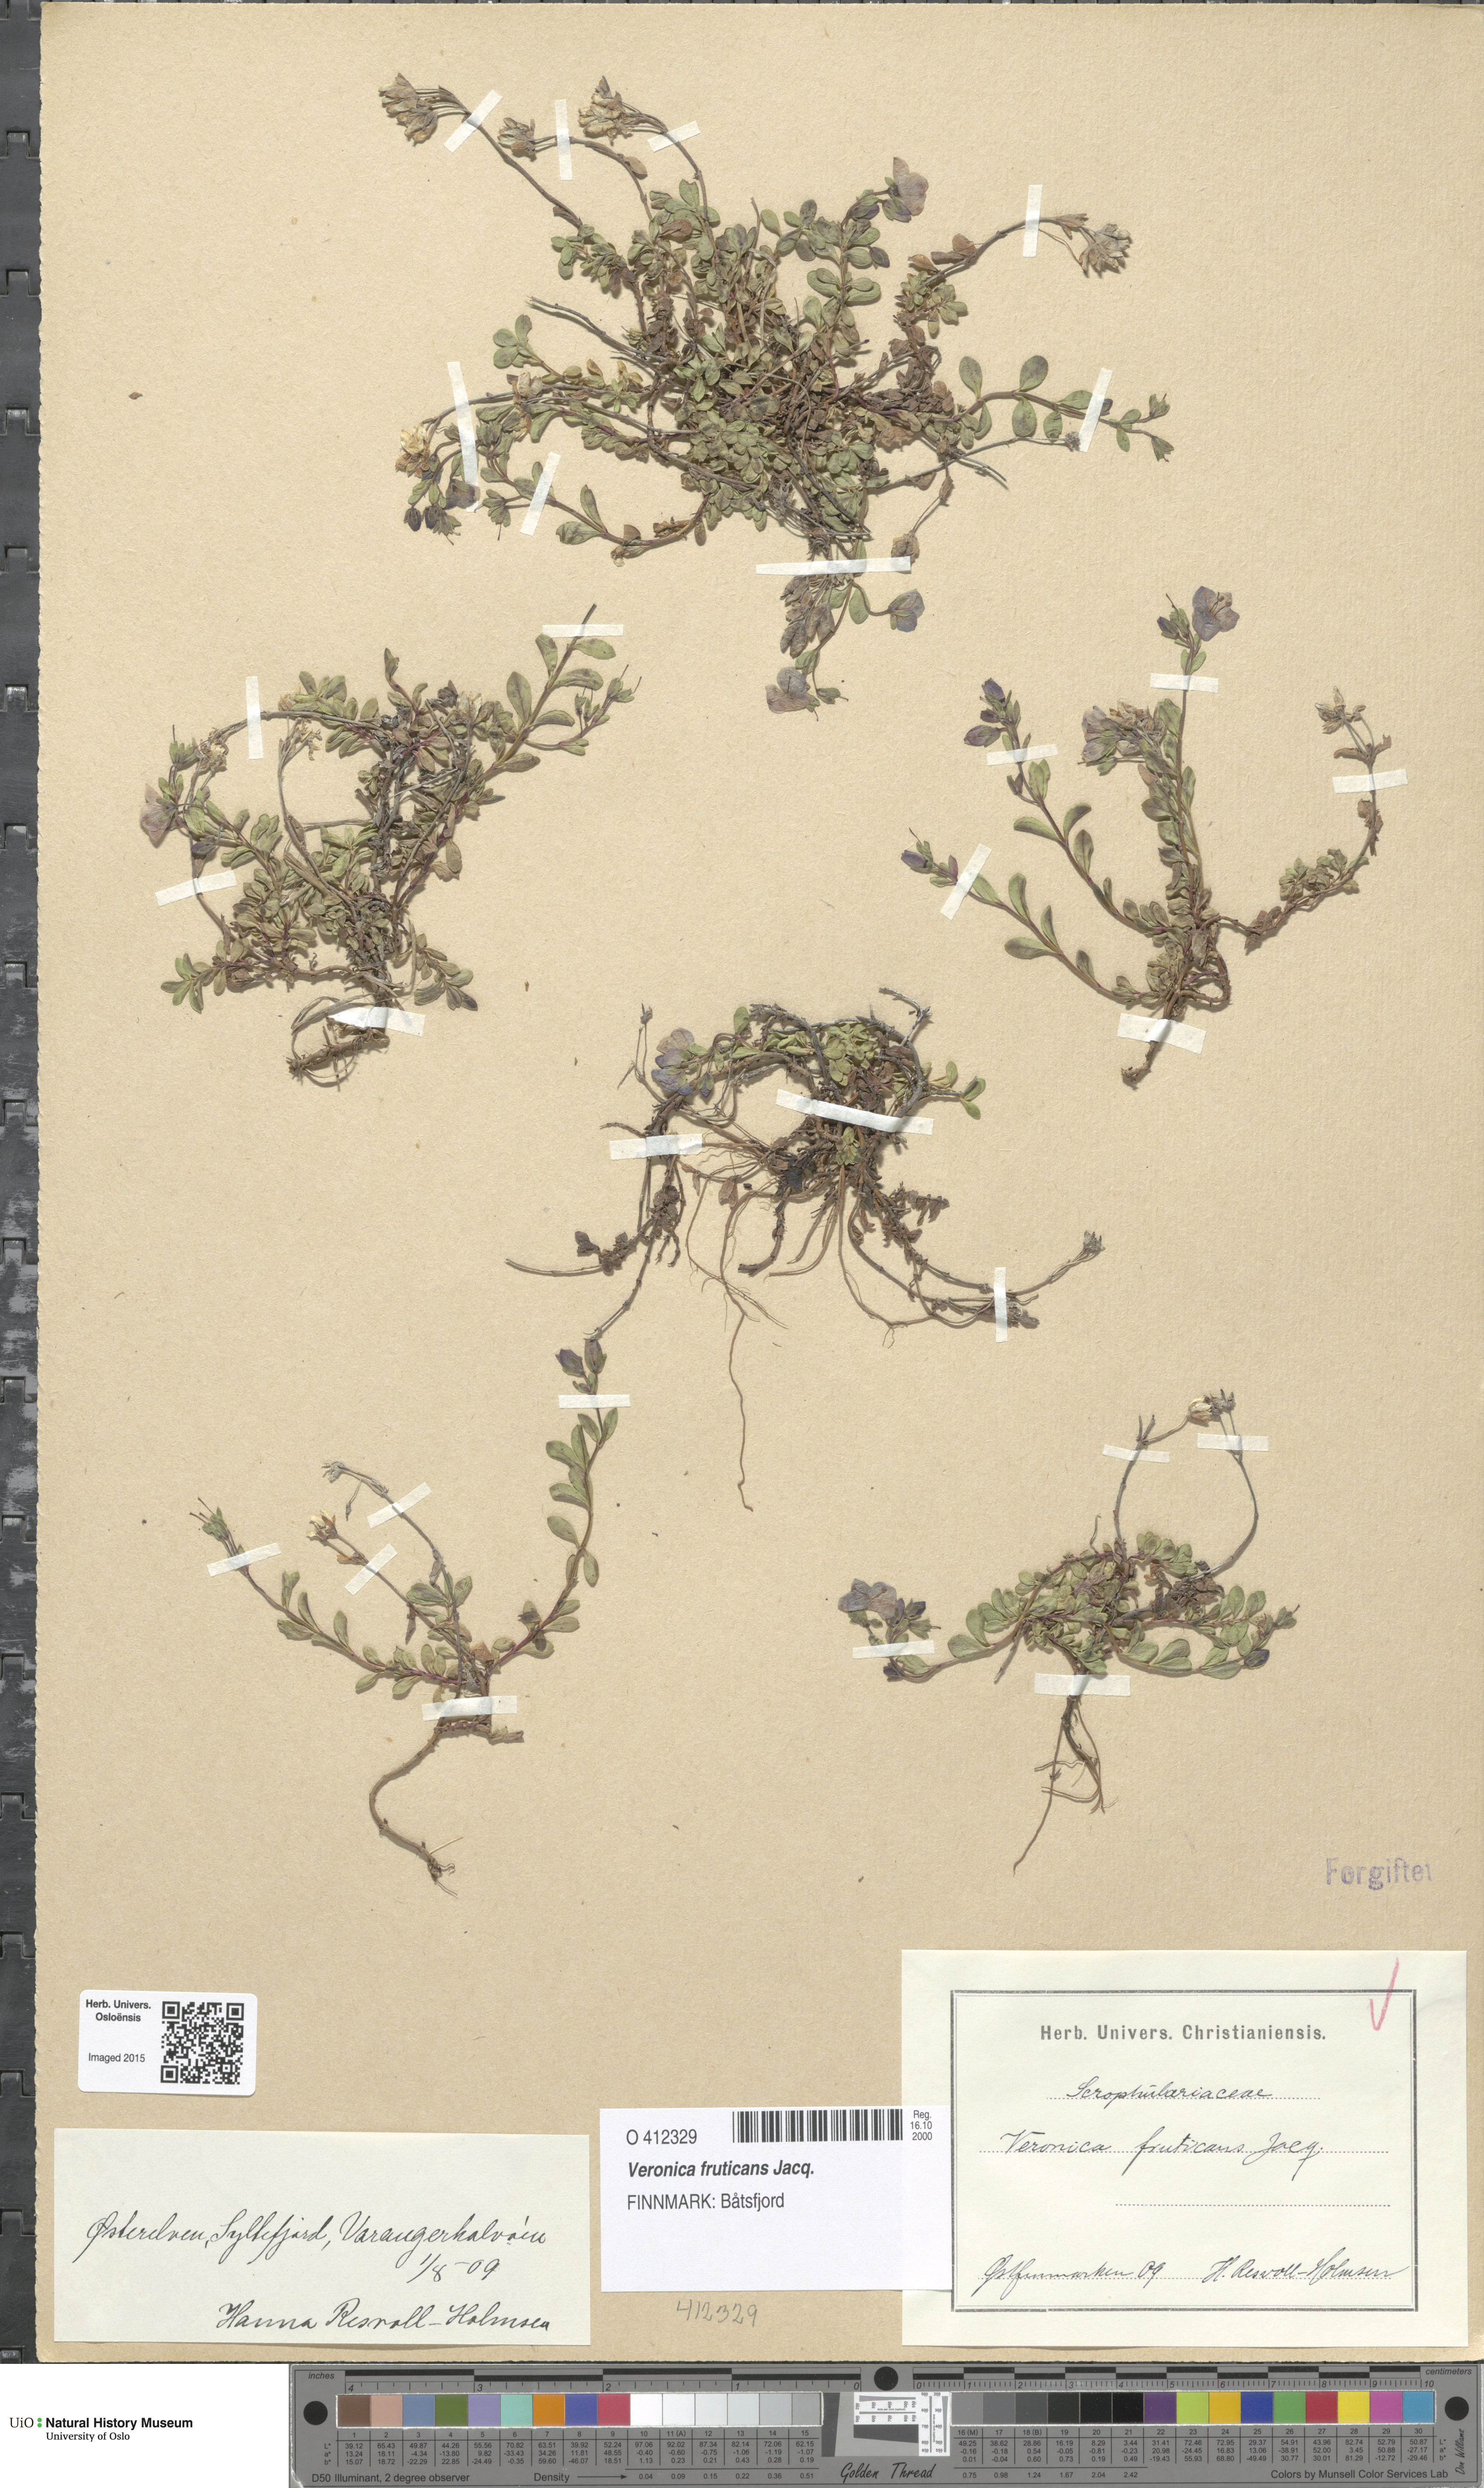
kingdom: Plantae
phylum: Tracheophyta
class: Magnoliopsida
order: Lamiales
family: Plantaginaceae
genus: Veronica
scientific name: Veronica fruticans
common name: Rock speedwell
